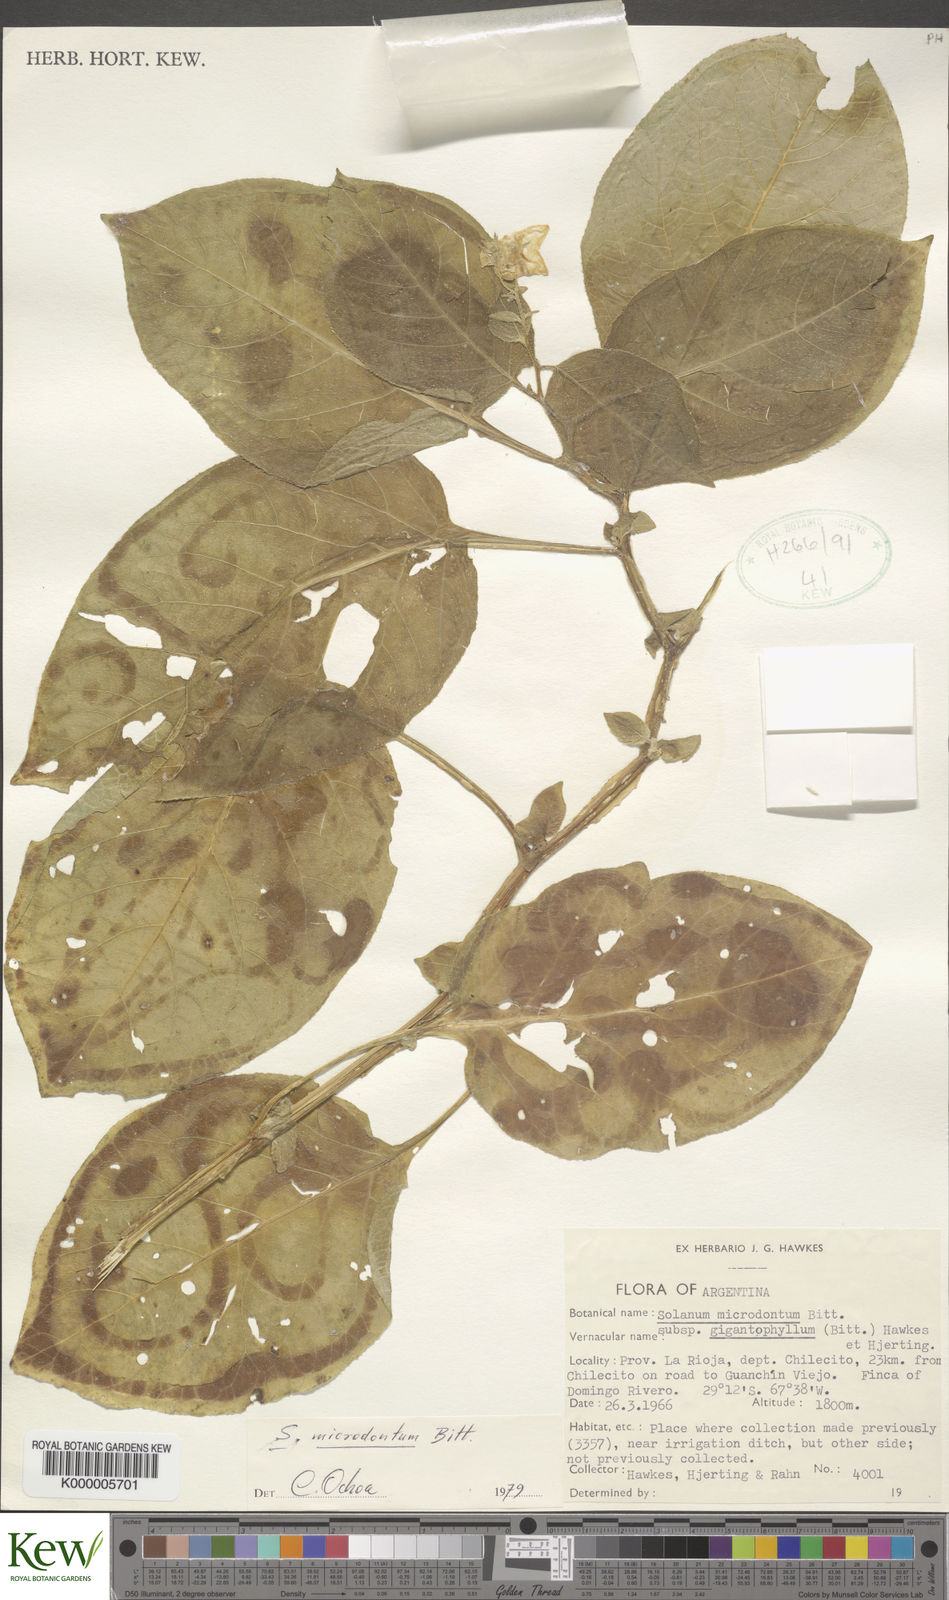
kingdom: Plantae
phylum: Tracheophyta
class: Magnoliopsida
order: Solanales
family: Solanaceae
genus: Solanum
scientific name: Solanum microdontum
